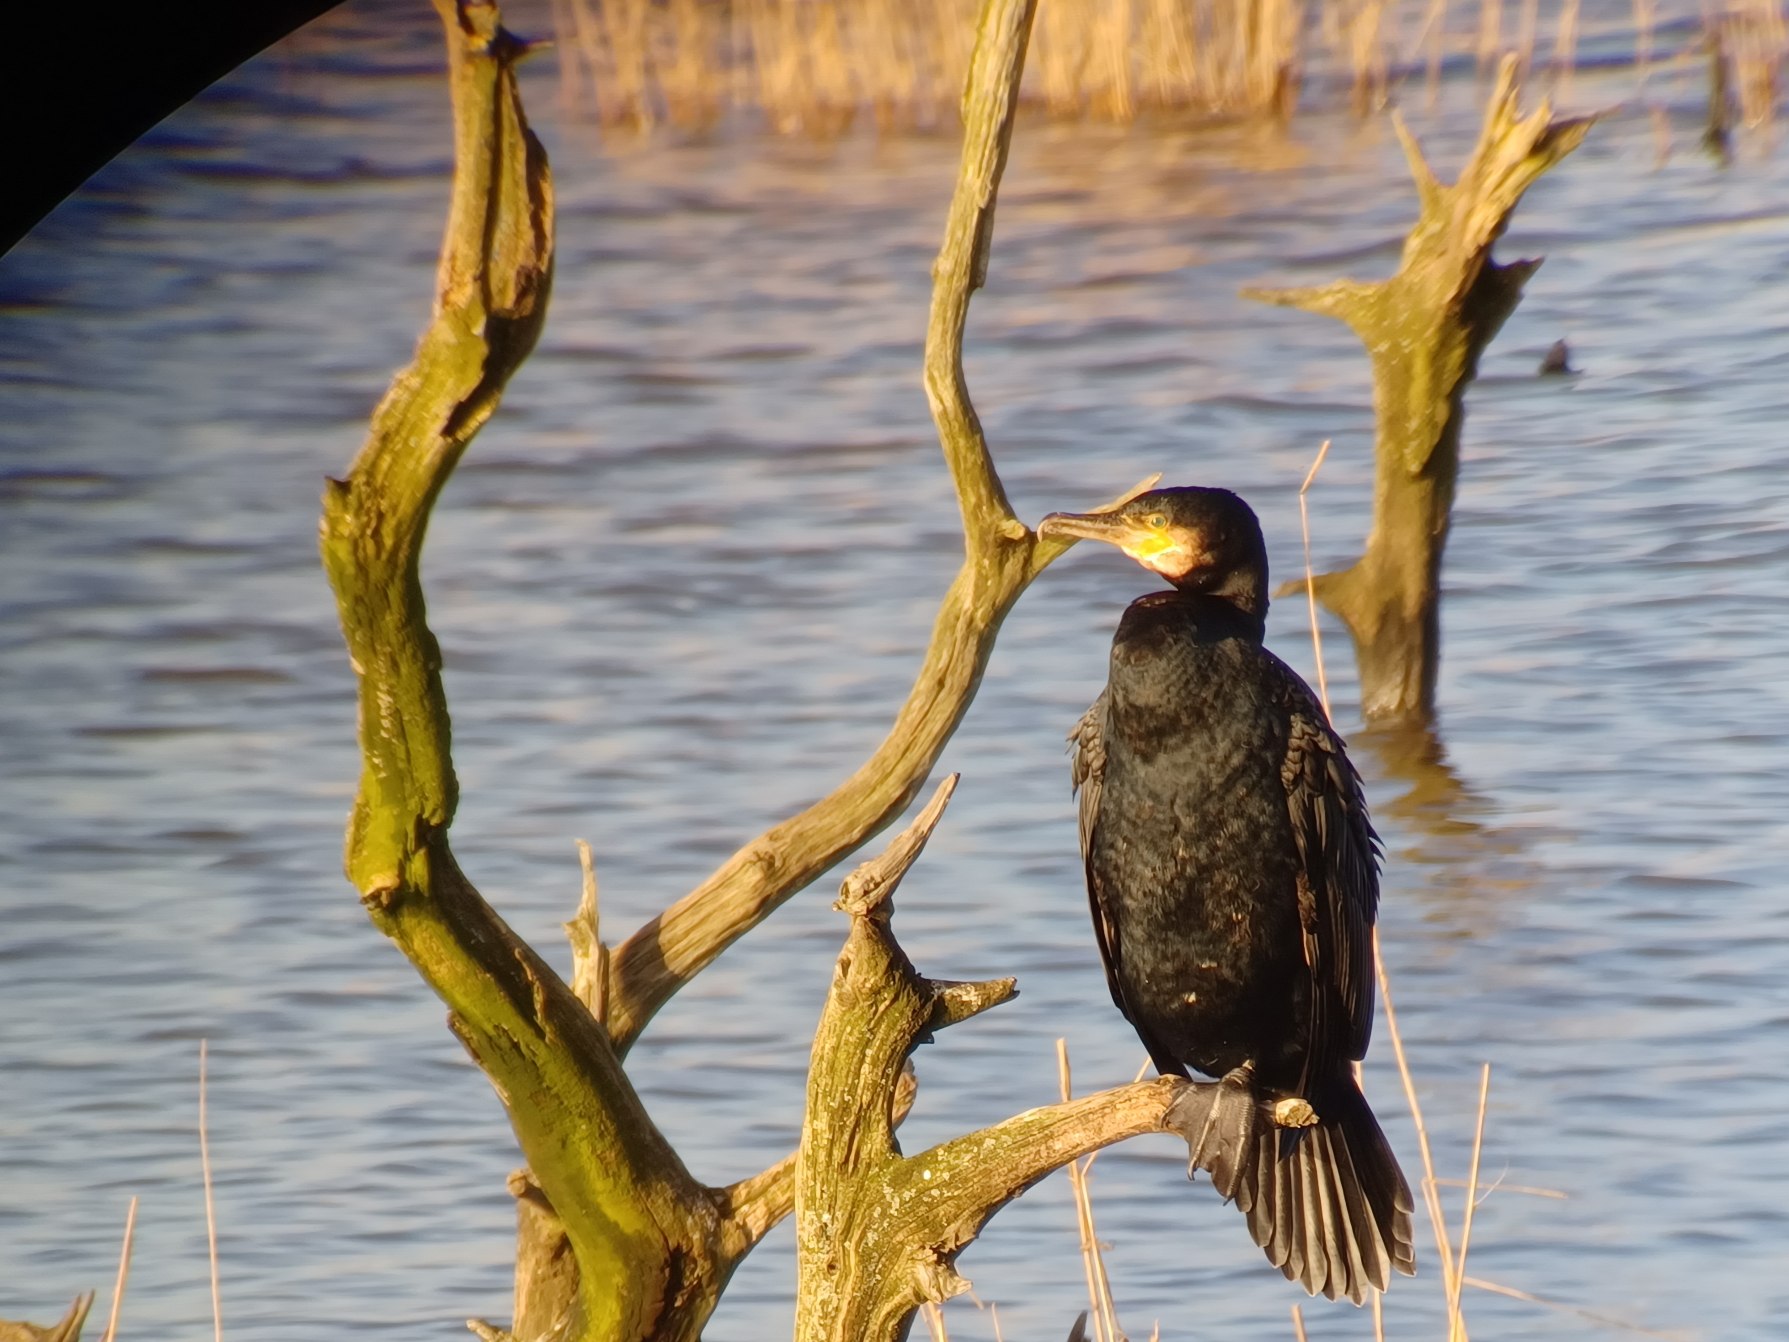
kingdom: Animalia
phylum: Chordata
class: Aves
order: Suliformes
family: Phalacrocoracidae
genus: Phalacrocorax
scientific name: Phalacrocorax carbo
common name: Skarv
